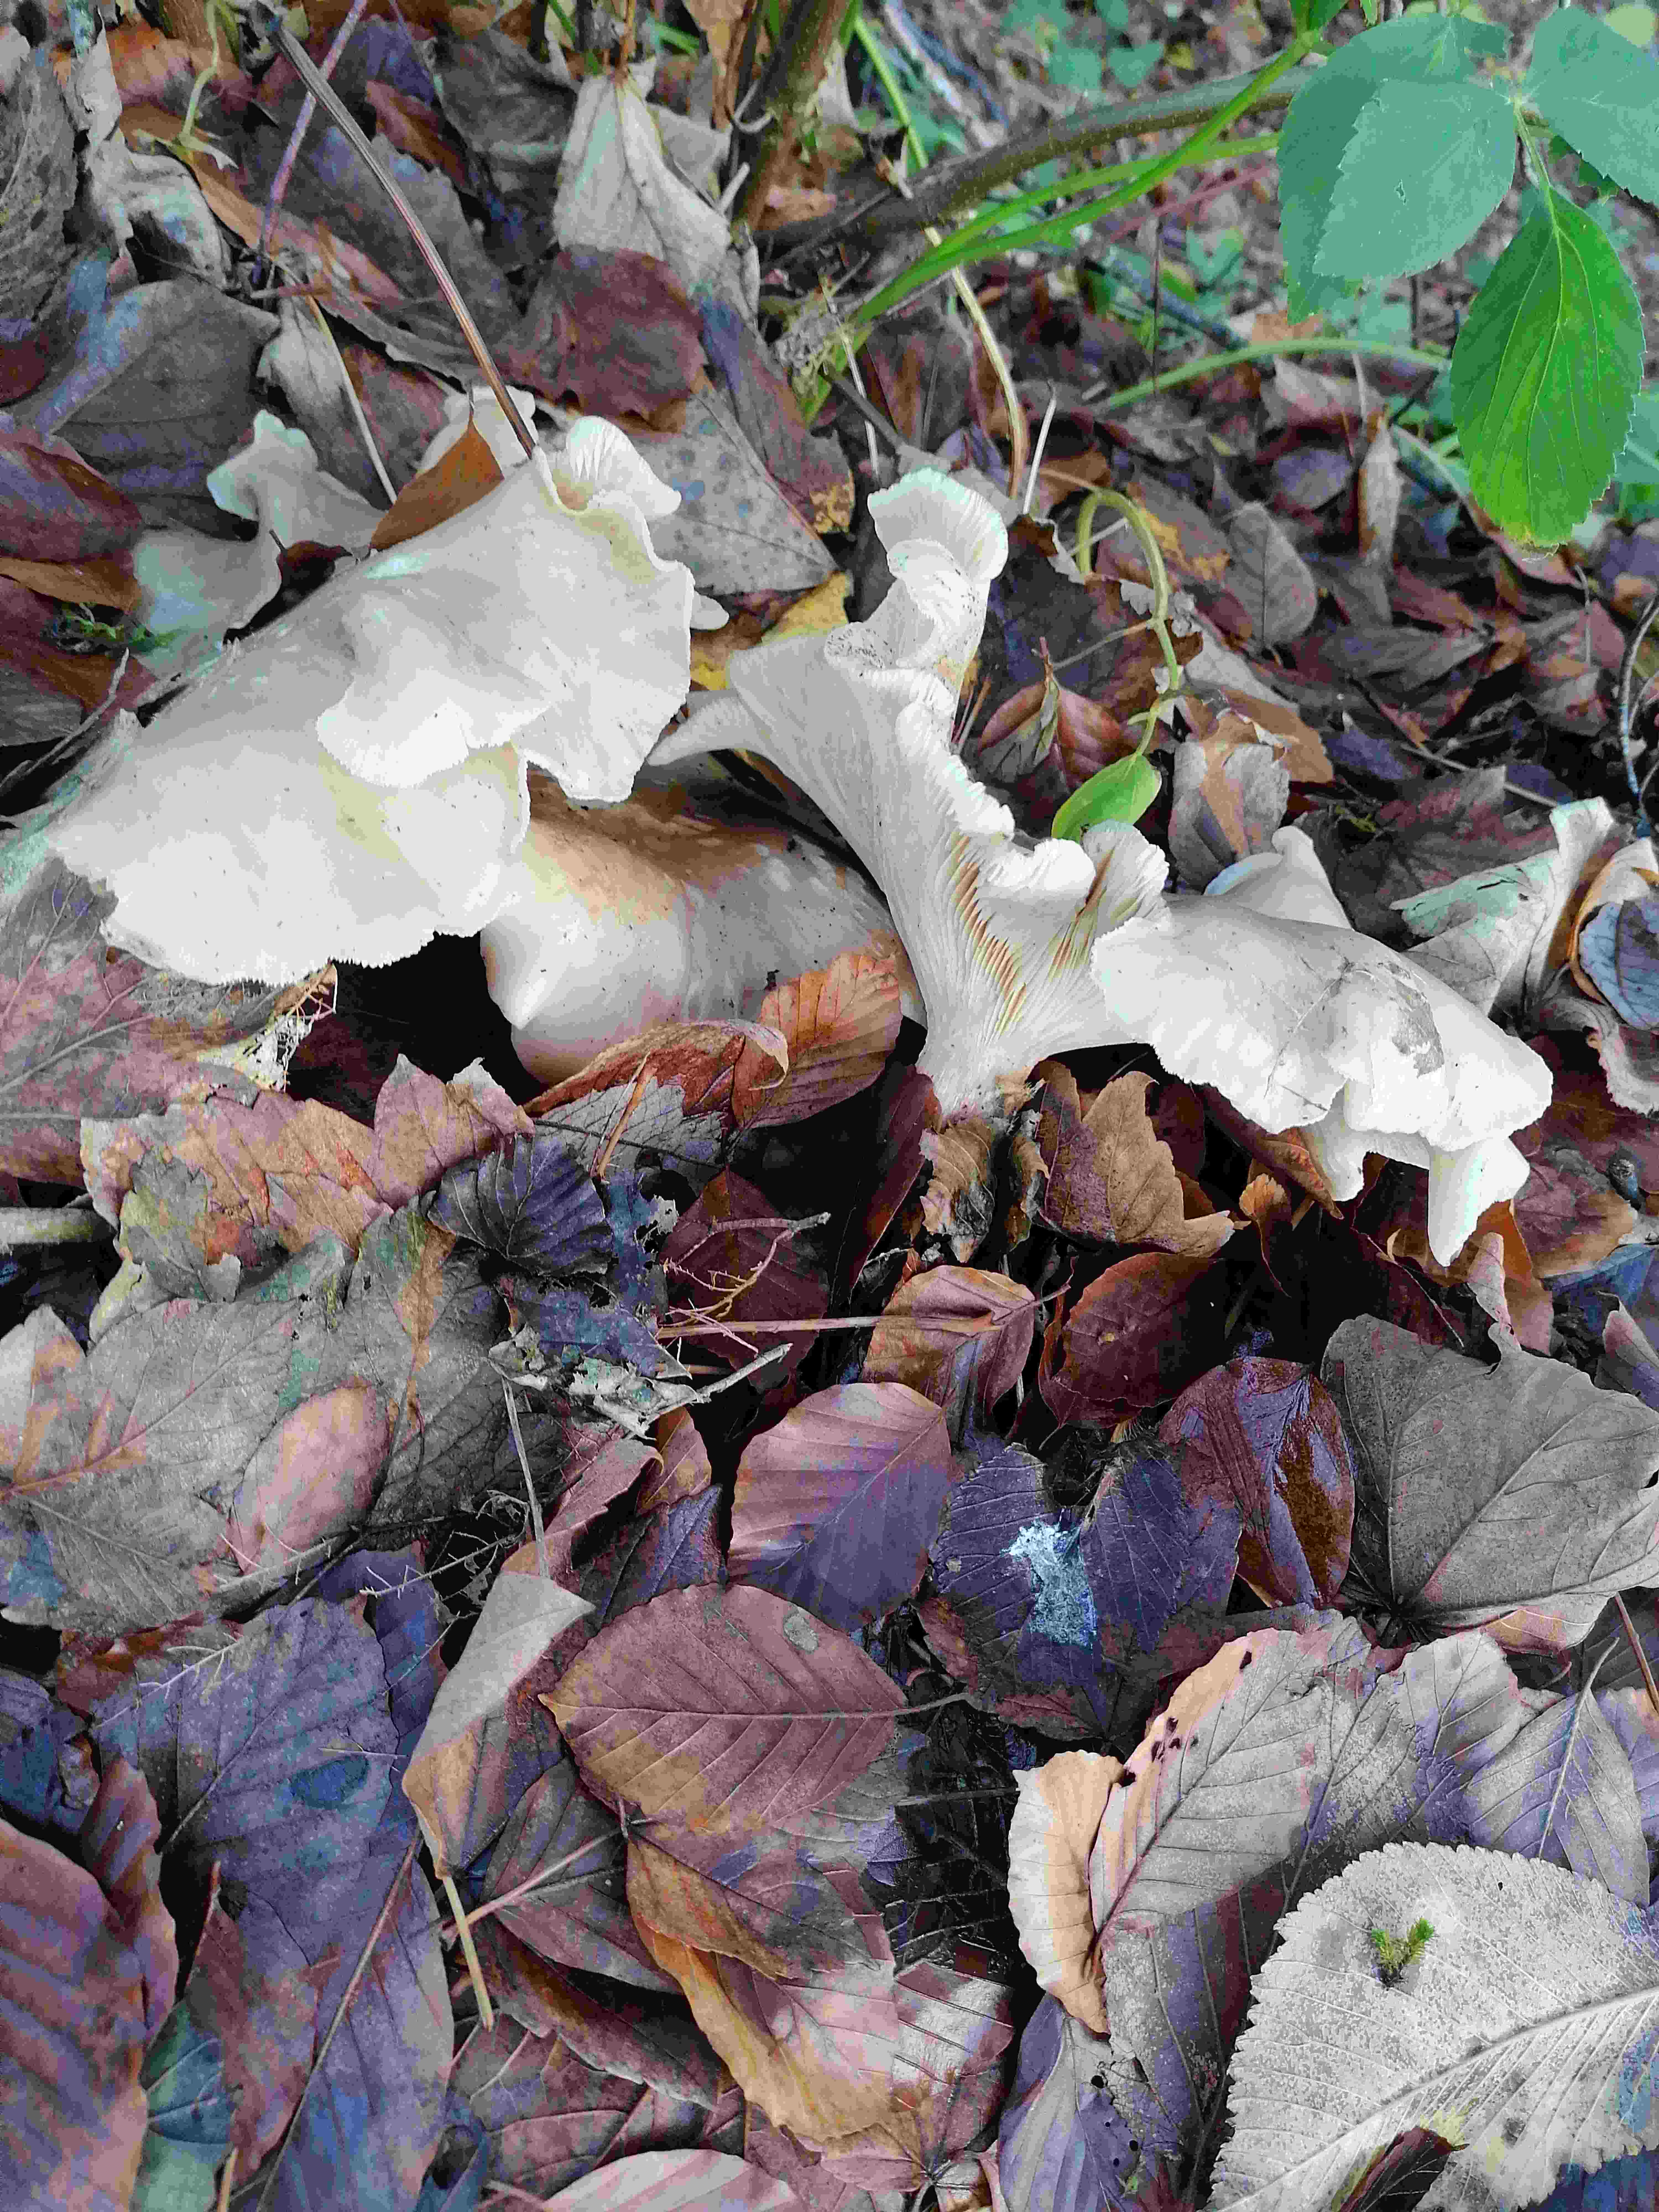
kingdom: Fungi
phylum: Basidiomycota
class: Agaricomycetes
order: Agaricales
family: Tricholomataceae
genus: Clitocybe
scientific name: Clitocybe nebularis
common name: tåge-tragthat
